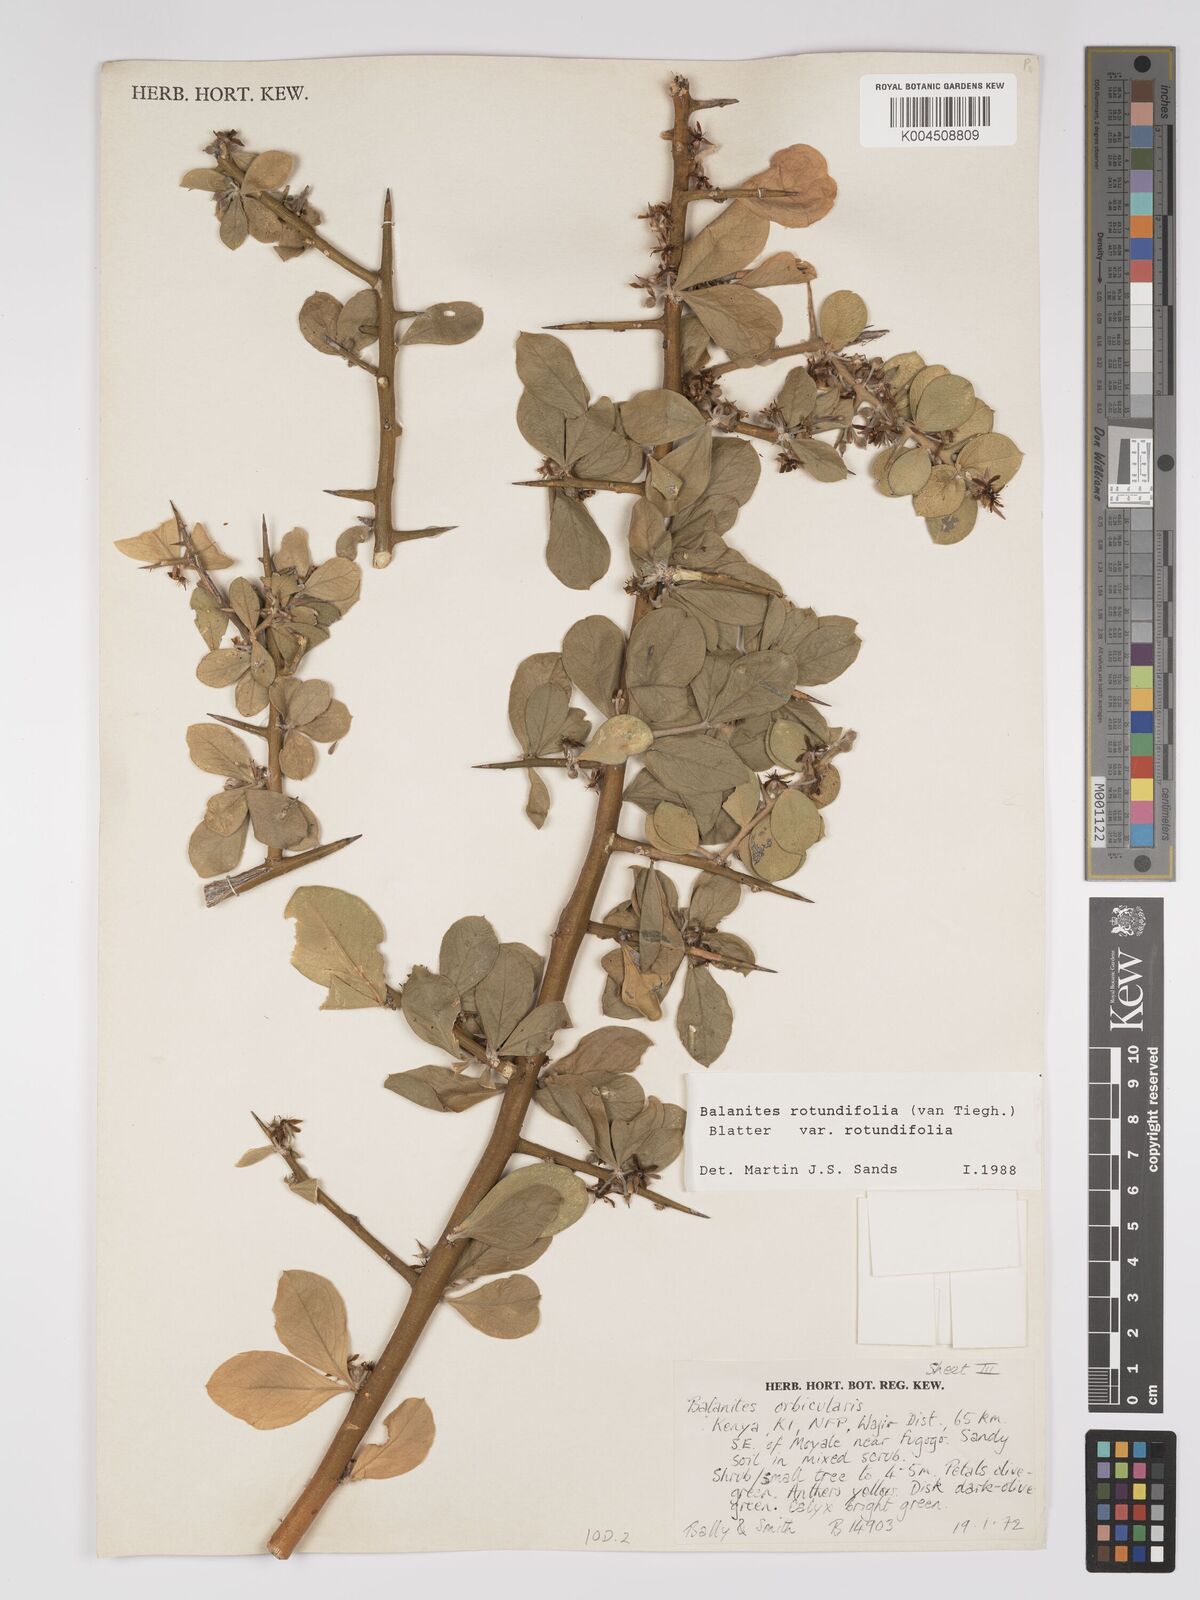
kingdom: Plantae
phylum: Tracheophyta
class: Magnoliopsida
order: Zygophyllales
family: Zygophyllaceae
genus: Balanites
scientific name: Balanites rotundifolia
